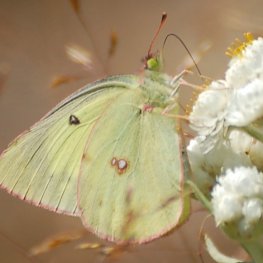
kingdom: Animalia
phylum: Arthropoda
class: Insecta
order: Lepidoptera
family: Pieridae
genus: Colias
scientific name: Colias philodice
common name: Clouded Sulphur
